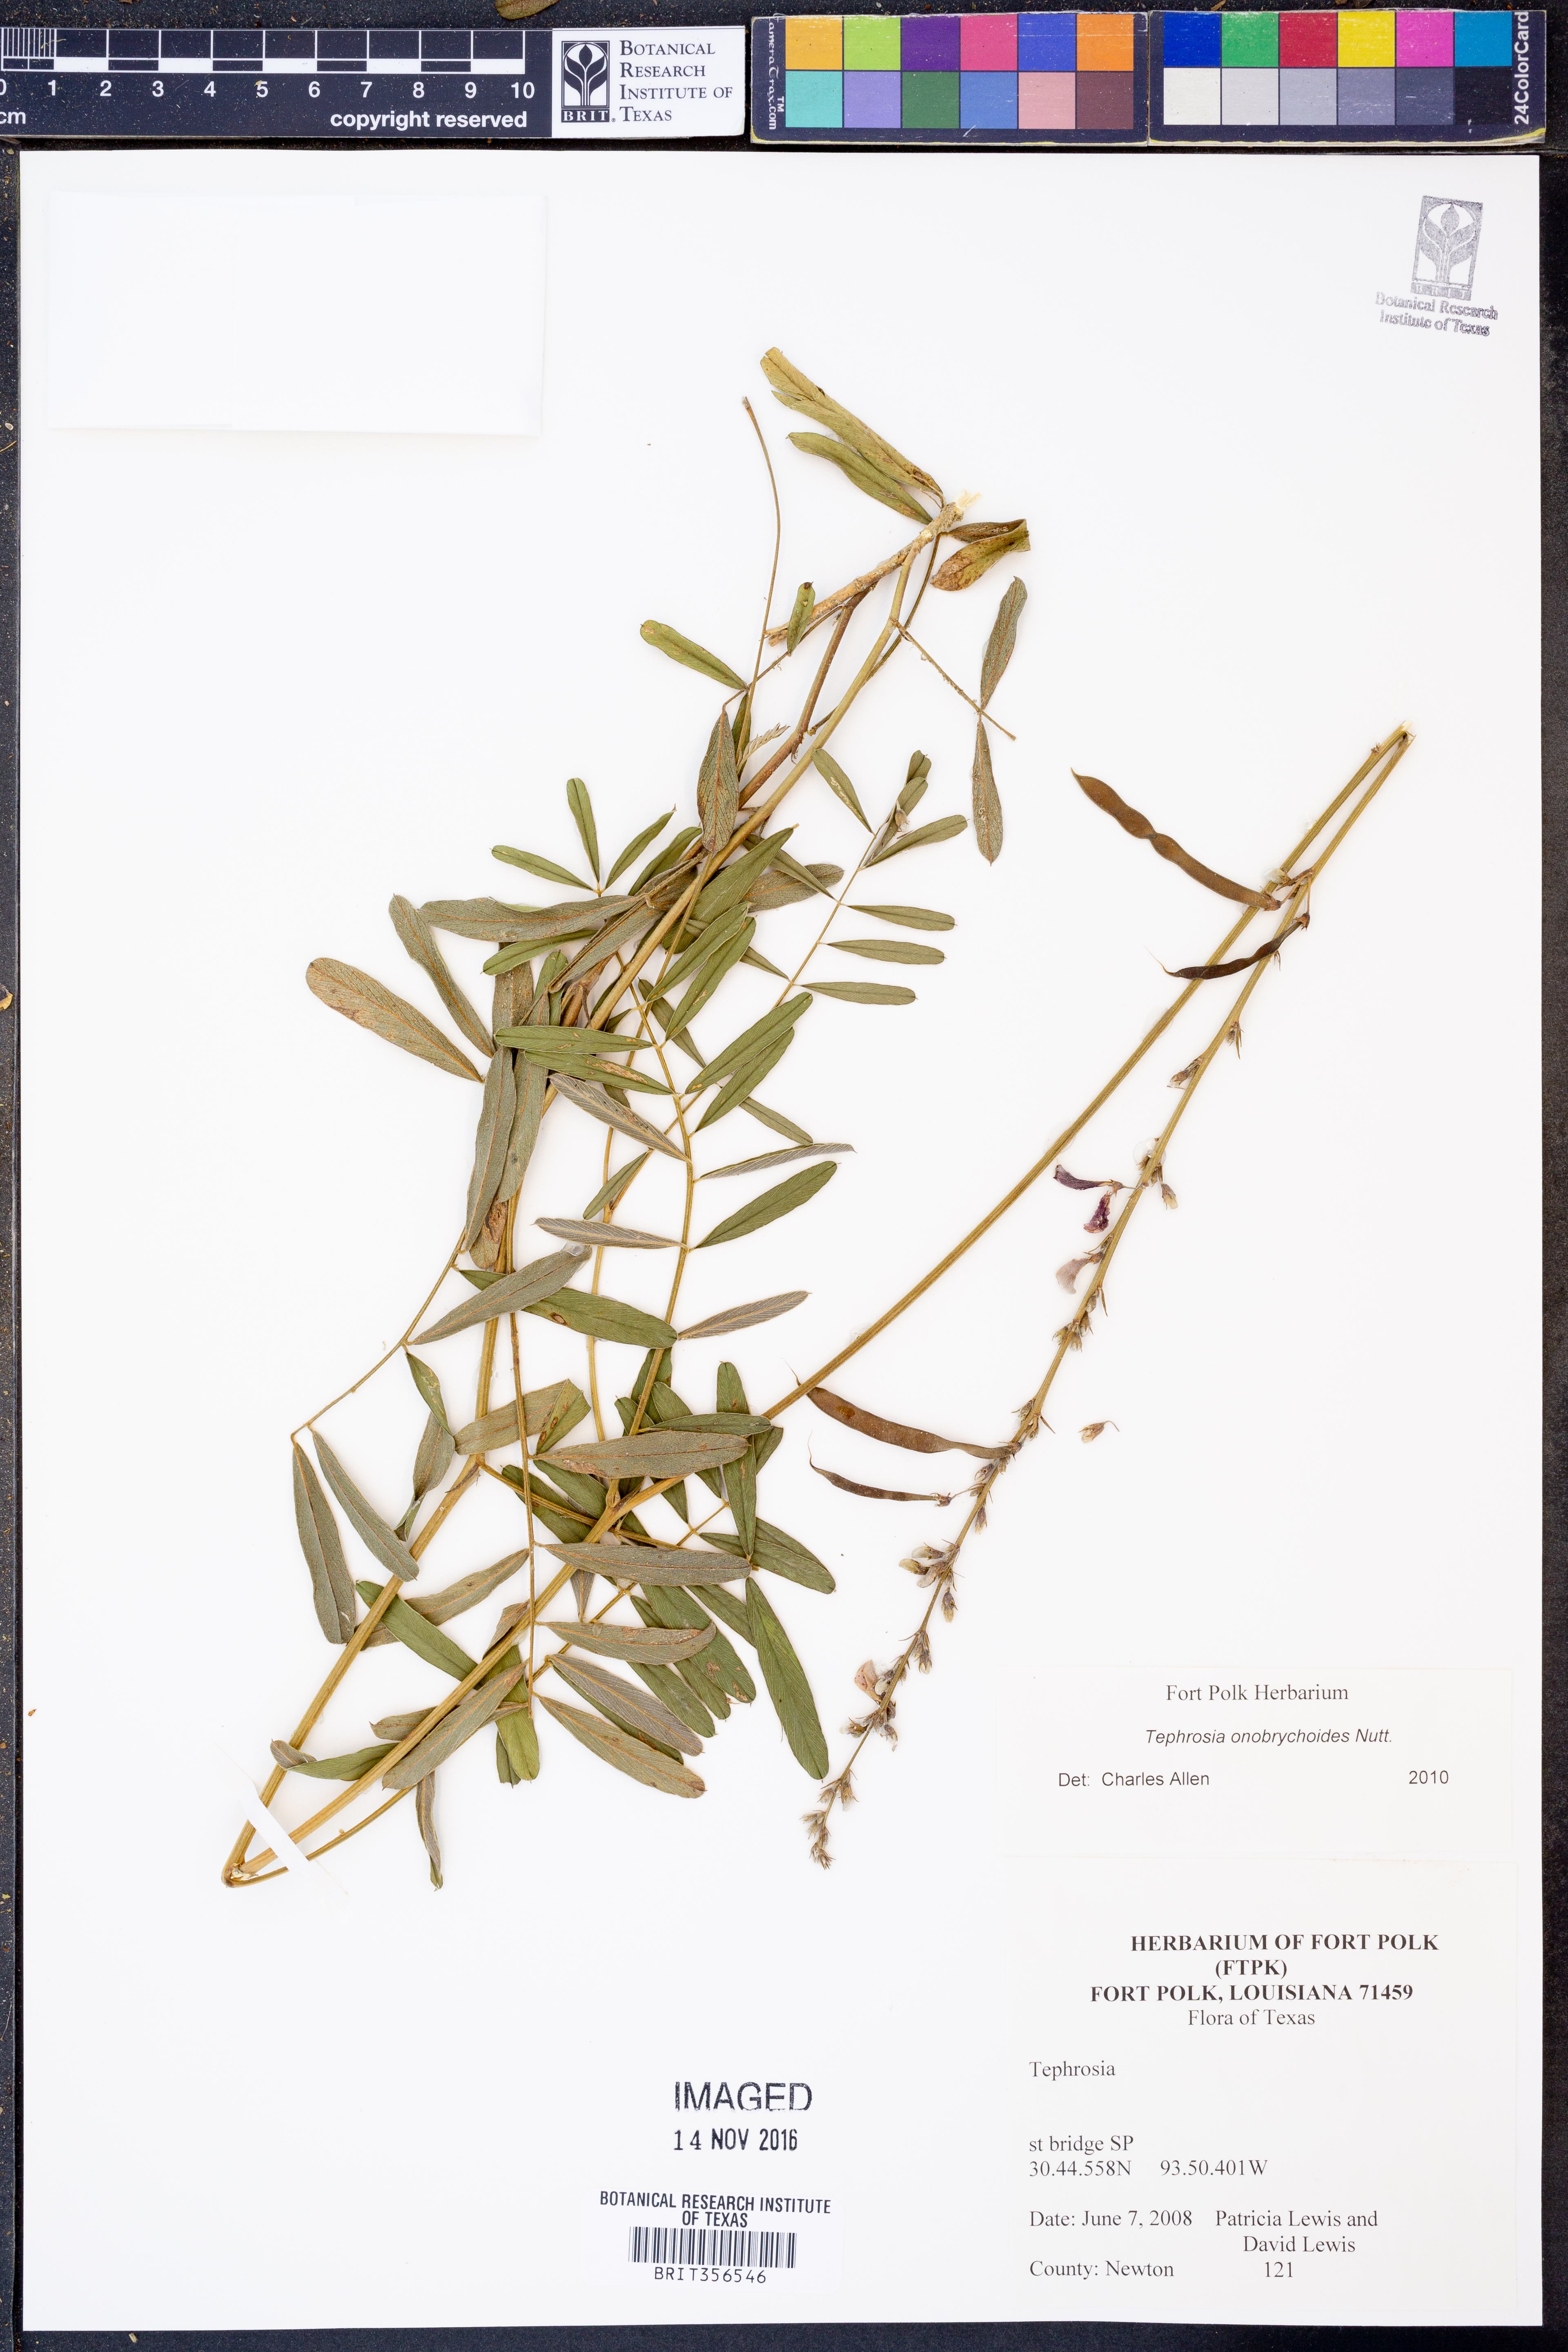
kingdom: Plantae
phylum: Tracheophyta
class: Magnoliopsida
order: Fabales
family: Fabaceae
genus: Tephrosia
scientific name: Tephrosia onobrychoides
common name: Multi-bloom hoary-pea
